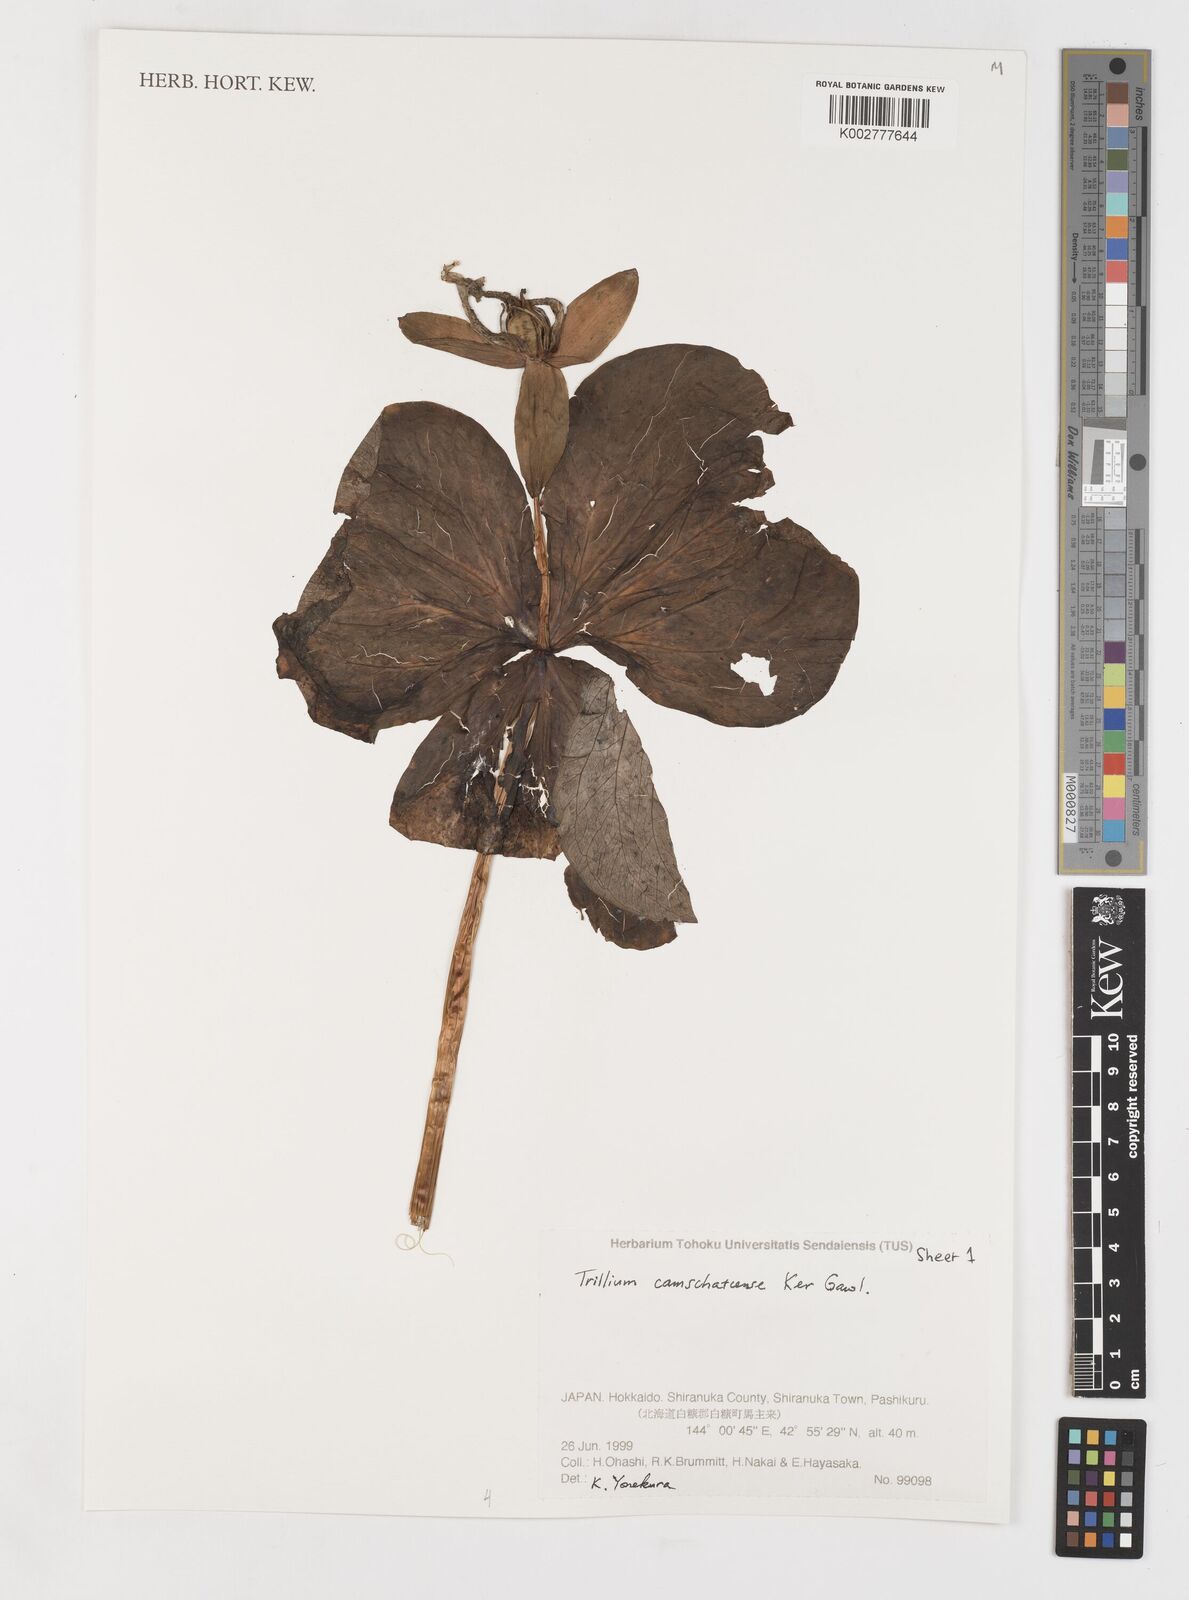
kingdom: Plantae
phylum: Tracheophyta
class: Liliopsida
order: Liliales
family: Melanthiaceae
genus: Trillium
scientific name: Trillium camschatcense
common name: Kamchatka trillium
